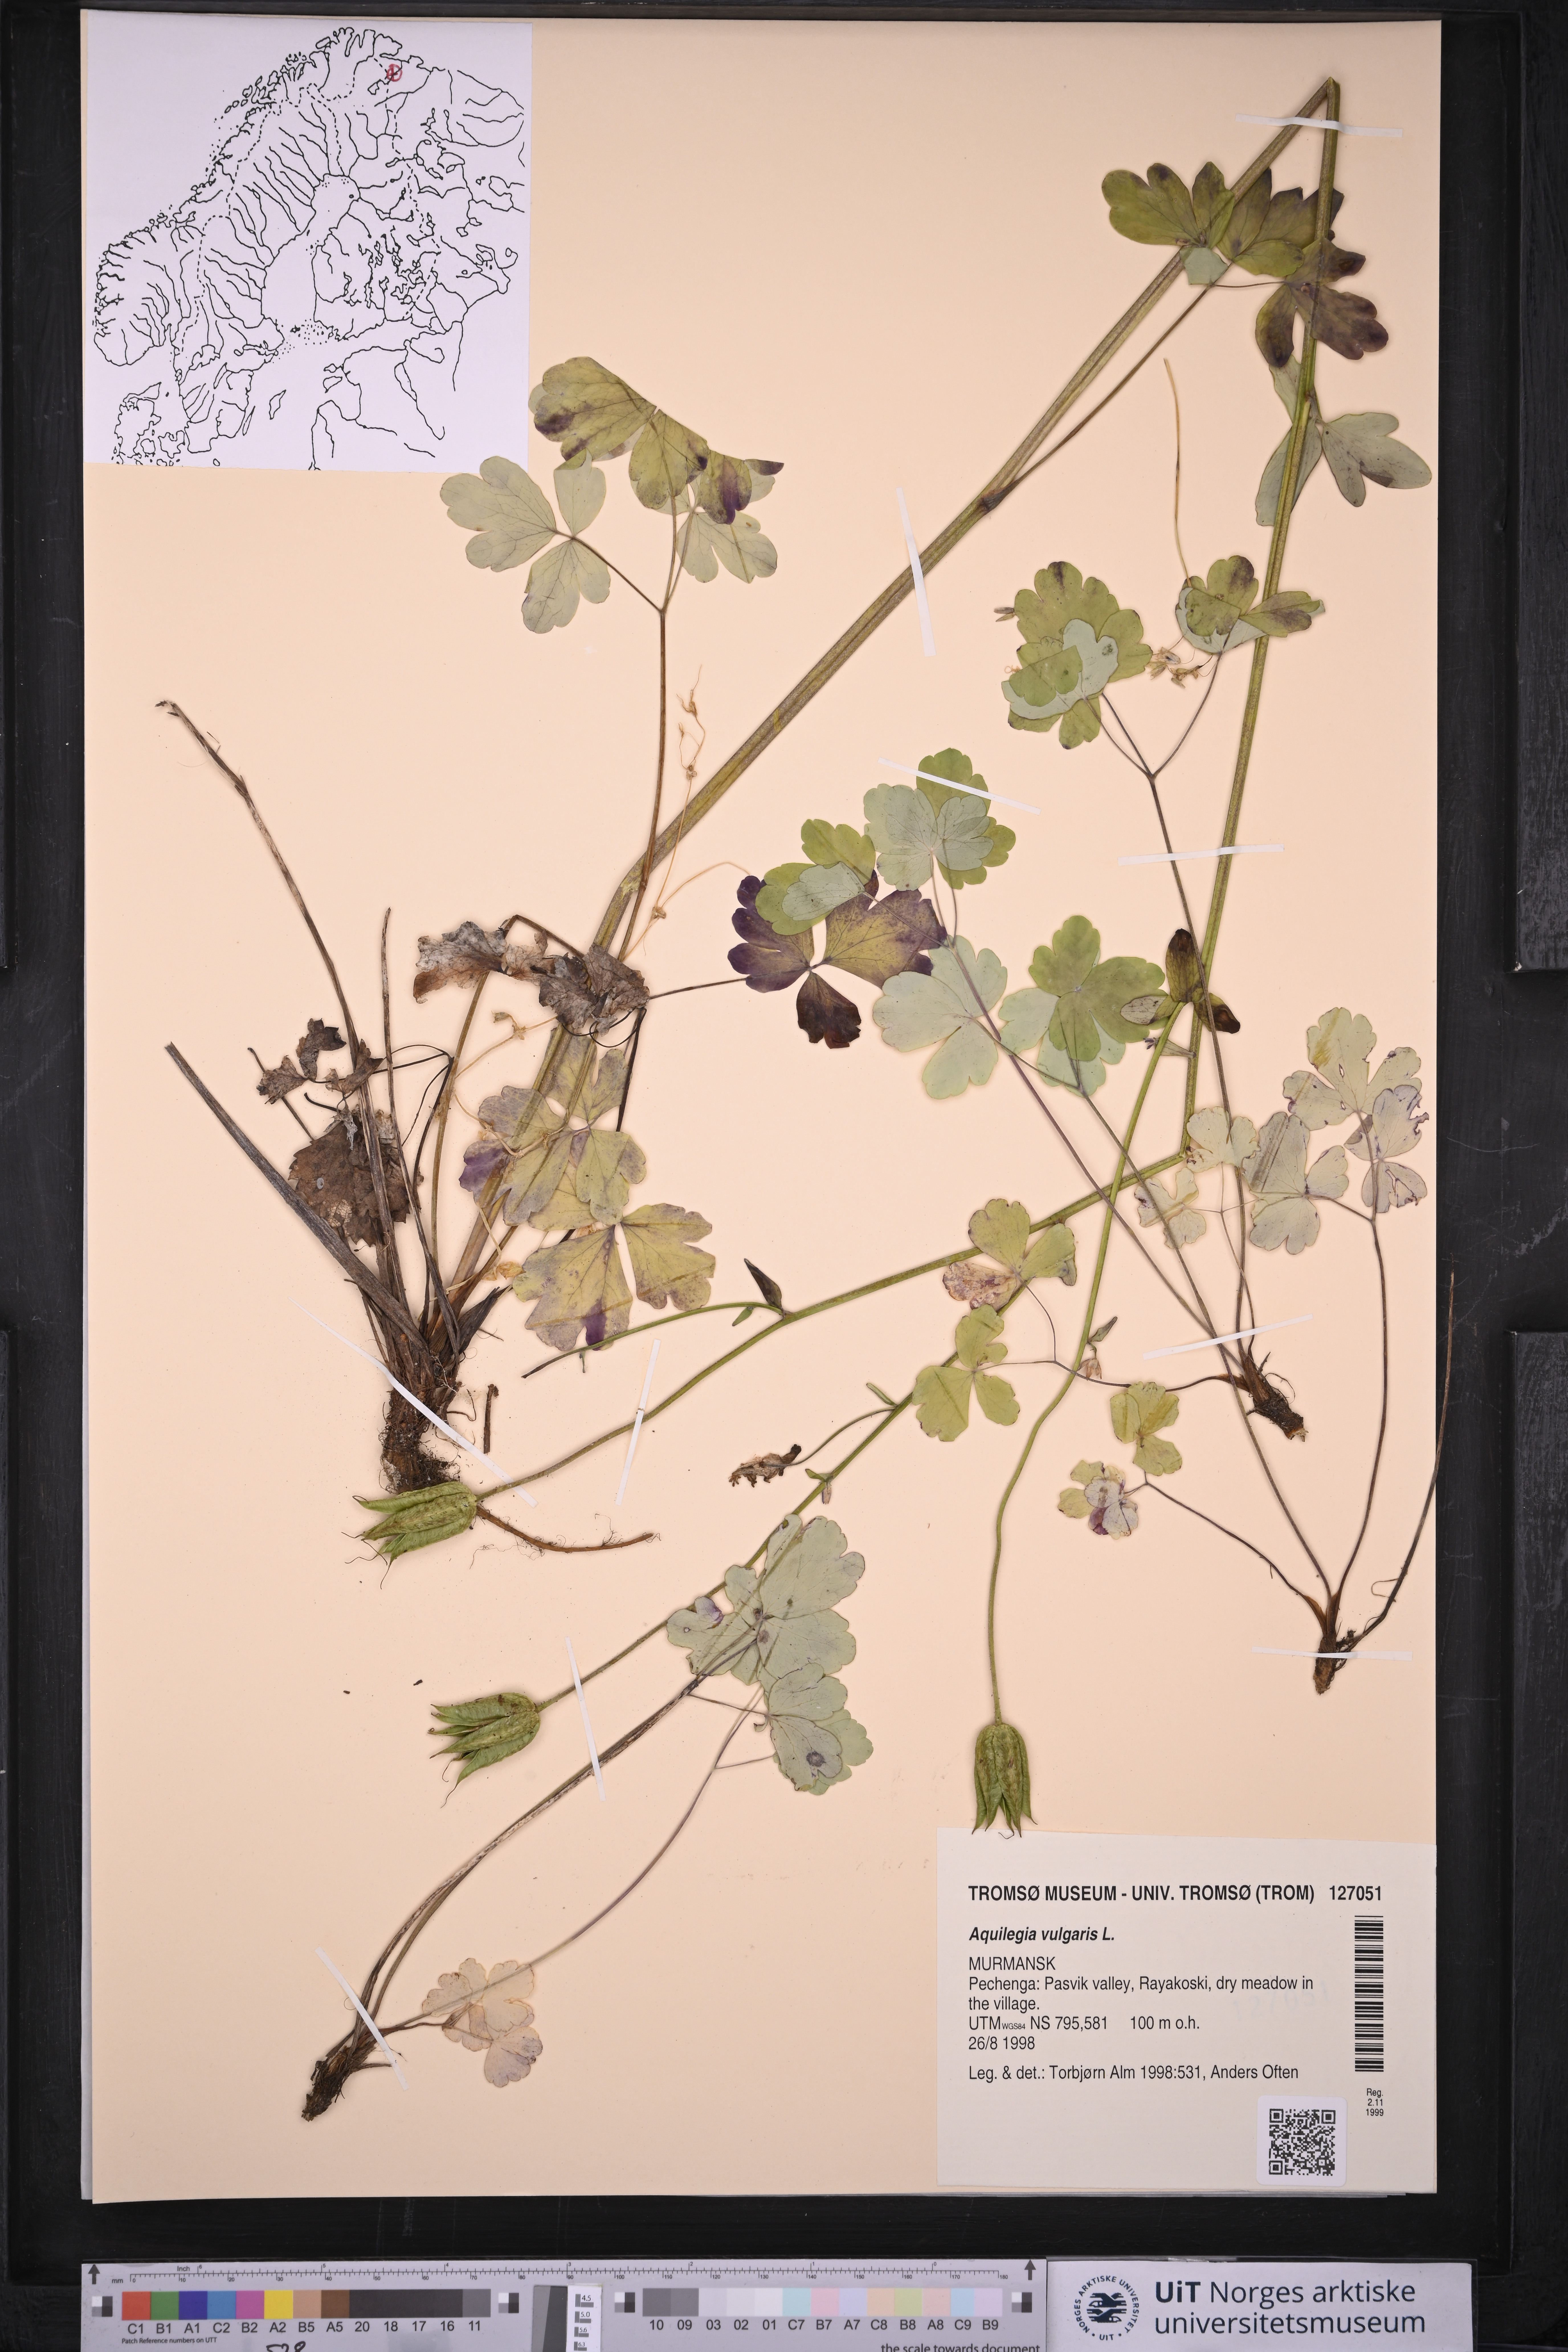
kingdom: Plantae
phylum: Tracheophyta
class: Magnoliopsida
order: Ranunculales
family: Ranunculaceae
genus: Aquilegia
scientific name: Aquilegia vulgaris
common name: Columbine
